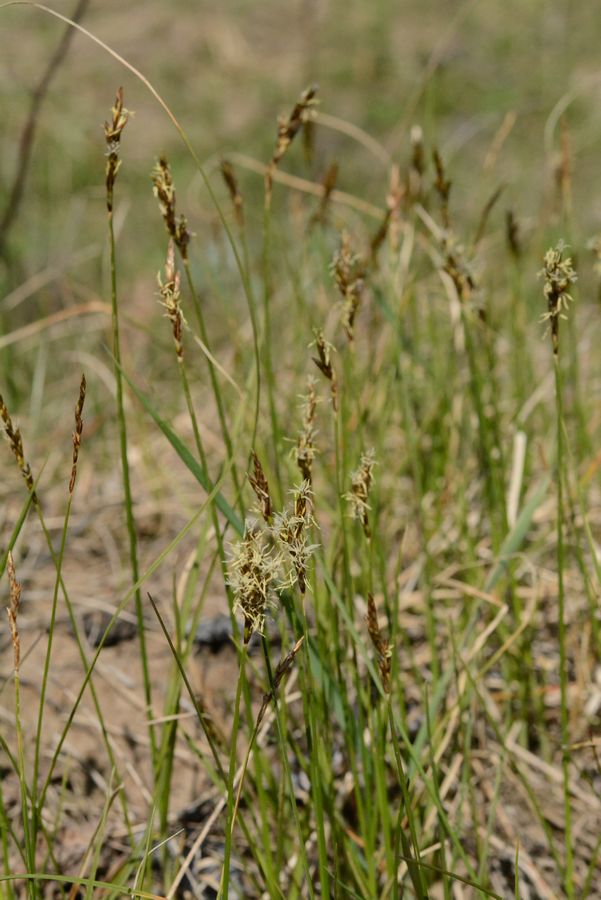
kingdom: Plantae
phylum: Tracheophyta
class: Liliopsida
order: Poales
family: Cyperaceae
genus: Carex
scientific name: Carex
